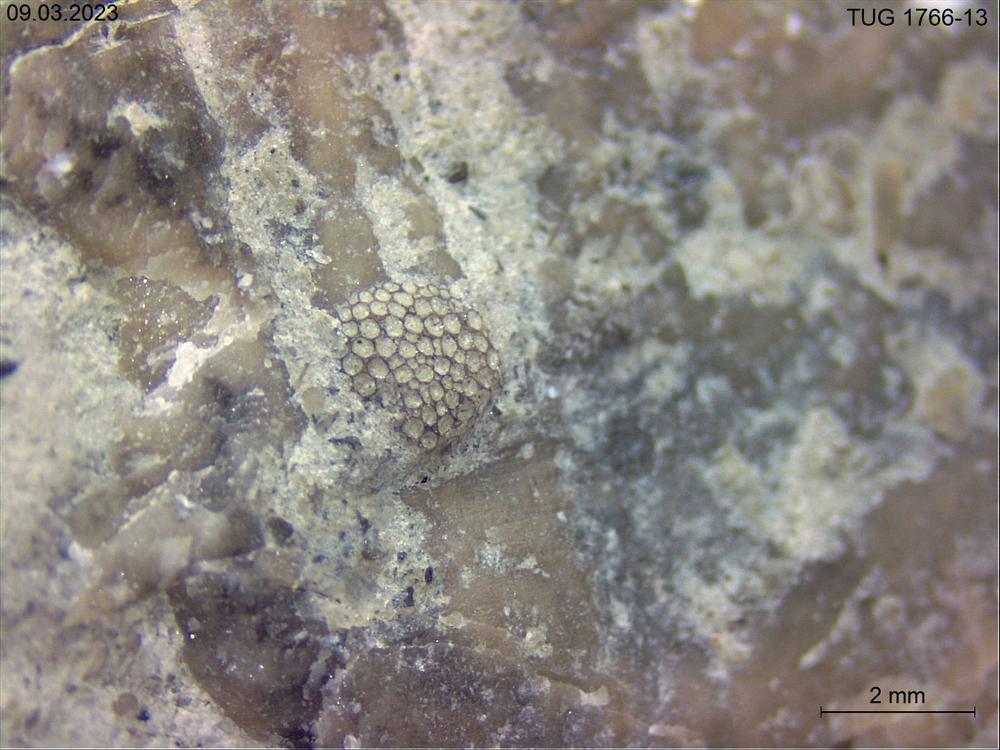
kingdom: Animalia
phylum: Bryozoa
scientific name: Bryozoa
